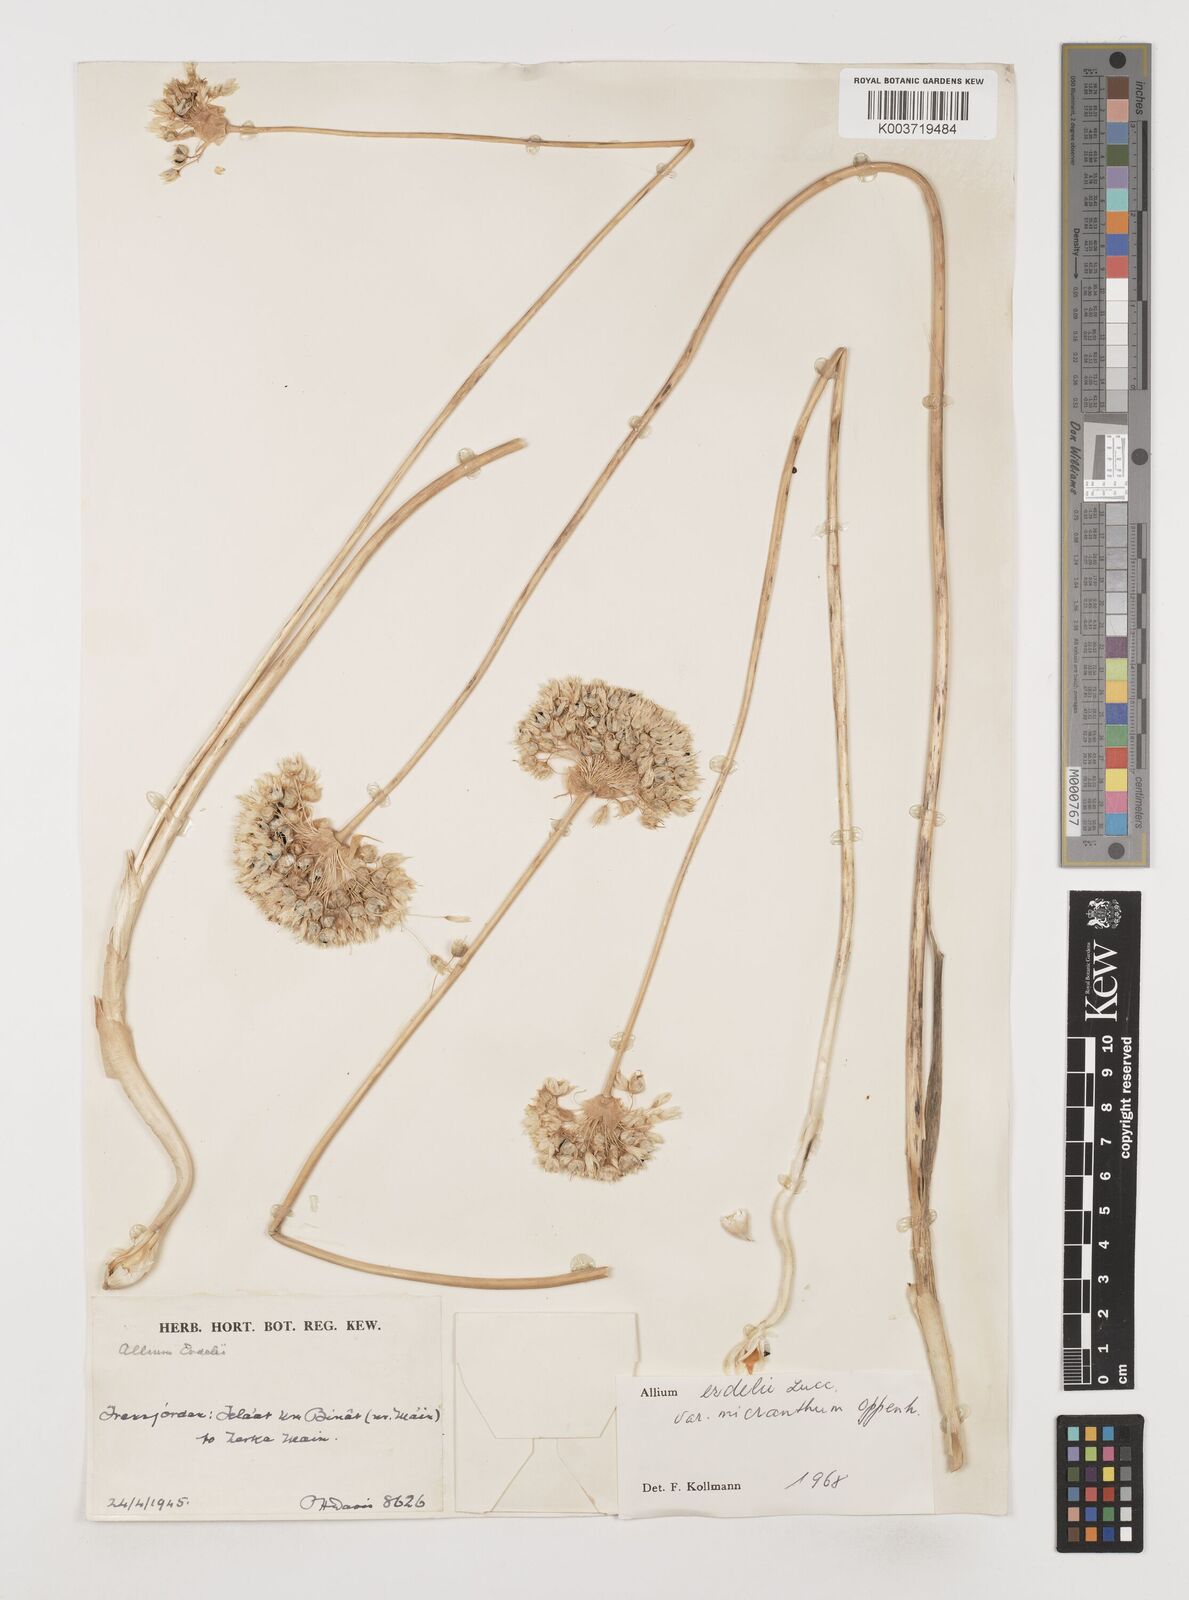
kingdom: Plantae
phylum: Tracheophyta
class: Liliopsida
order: Asparagales
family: Amaryllidaceae
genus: Allium
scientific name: Allium orientale
